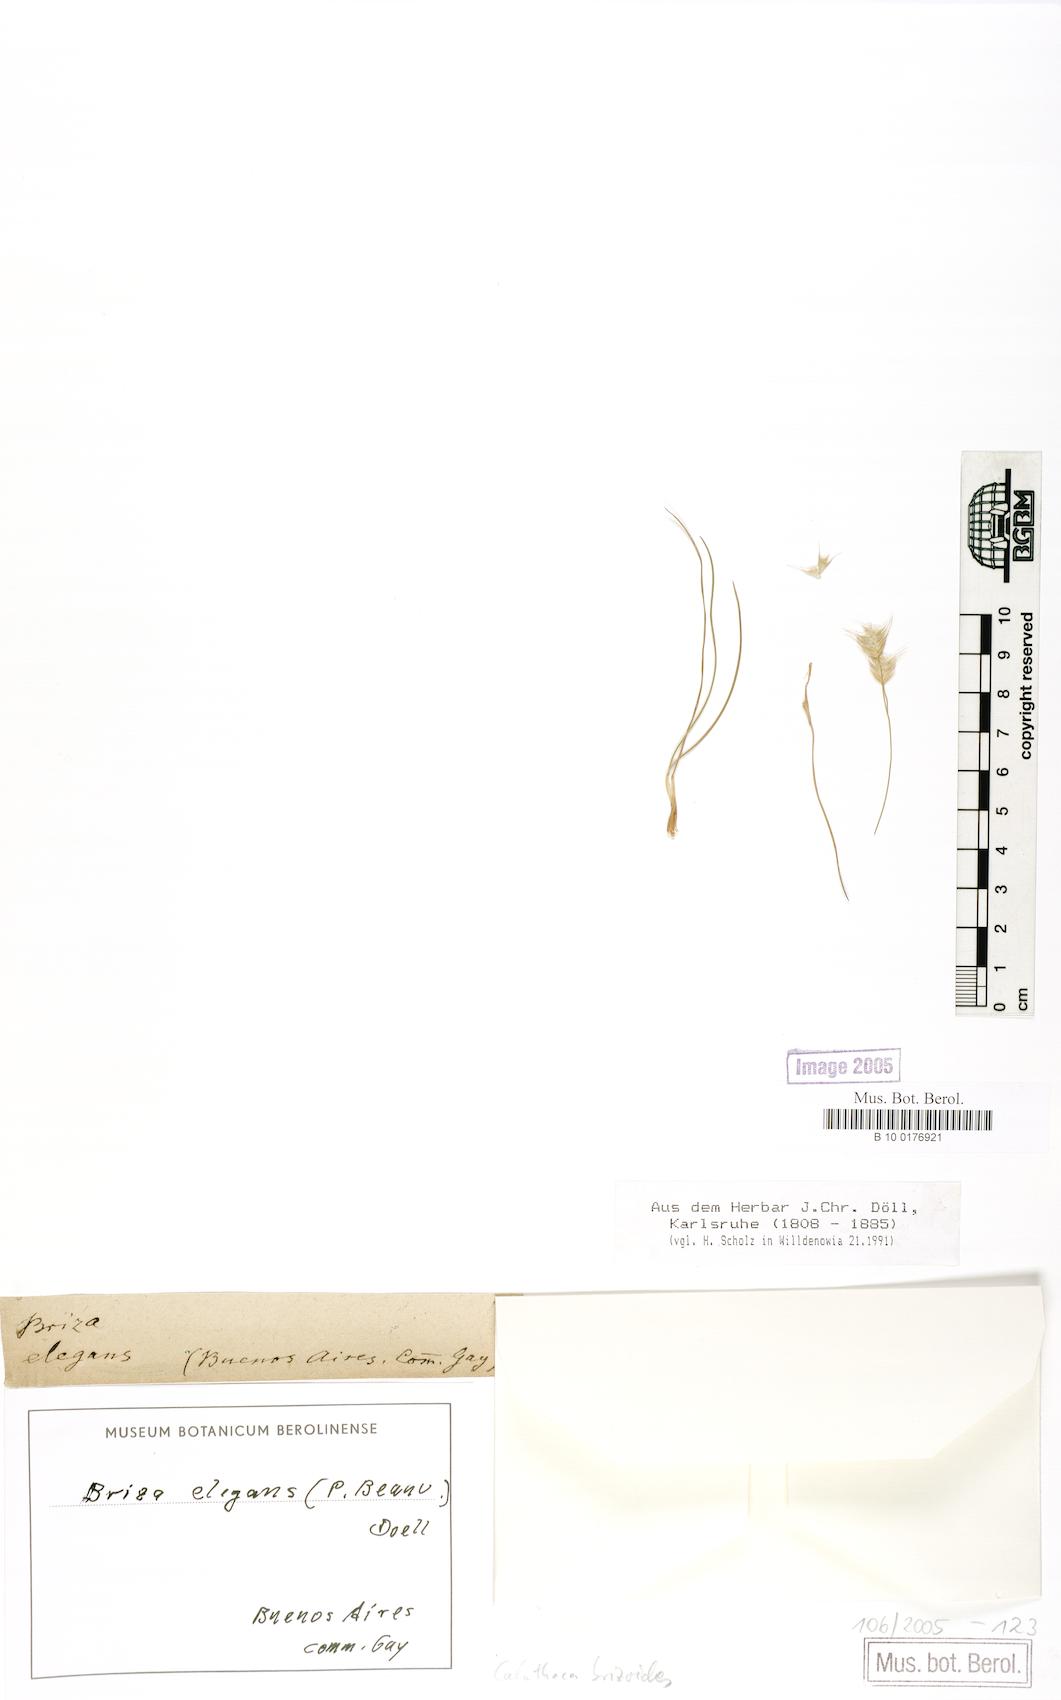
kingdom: Plantae
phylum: Tracheophyta
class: Liliopsida
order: Poales
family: Poaceae
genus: Calotheca
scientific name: Calotheca brizoides
